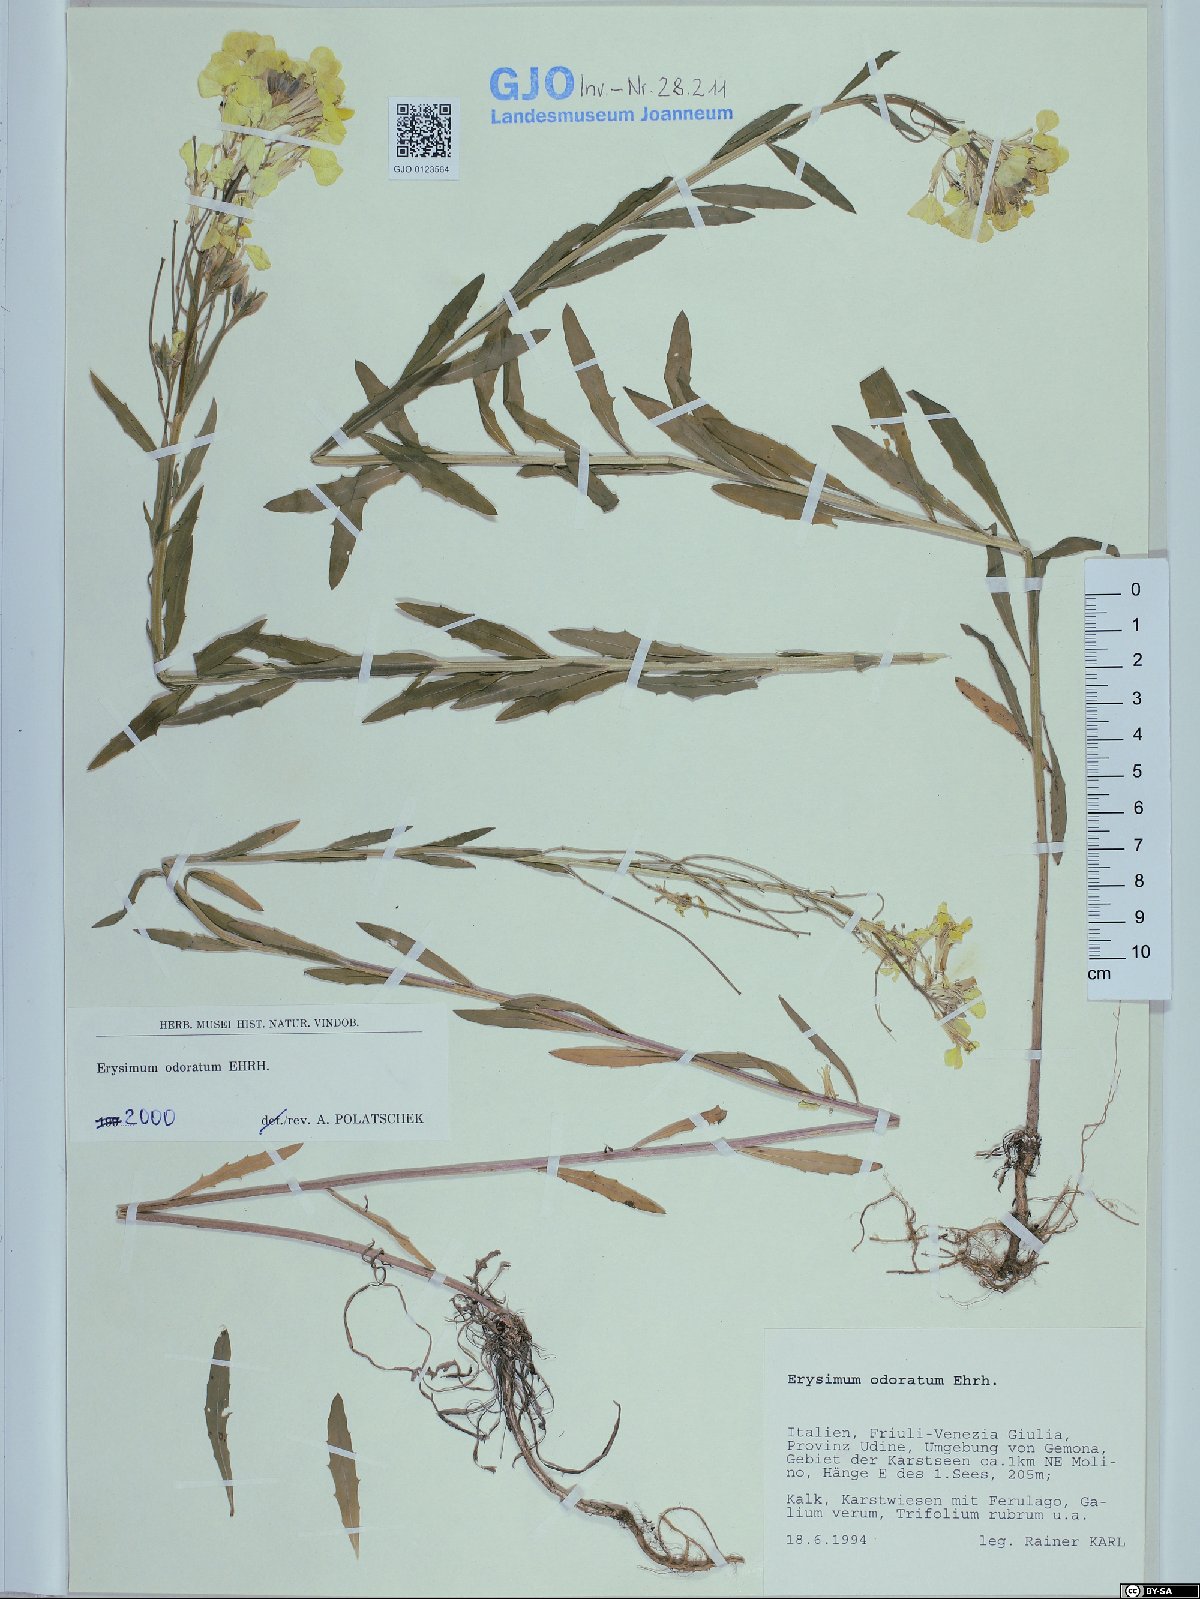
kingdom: Plantae
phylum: Tracheophyta
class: Magnoliopsida
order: Brassicales
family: Brassicaceae
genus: Erysimum
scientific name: Erysimum odoratum
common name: Smelly wallflower
